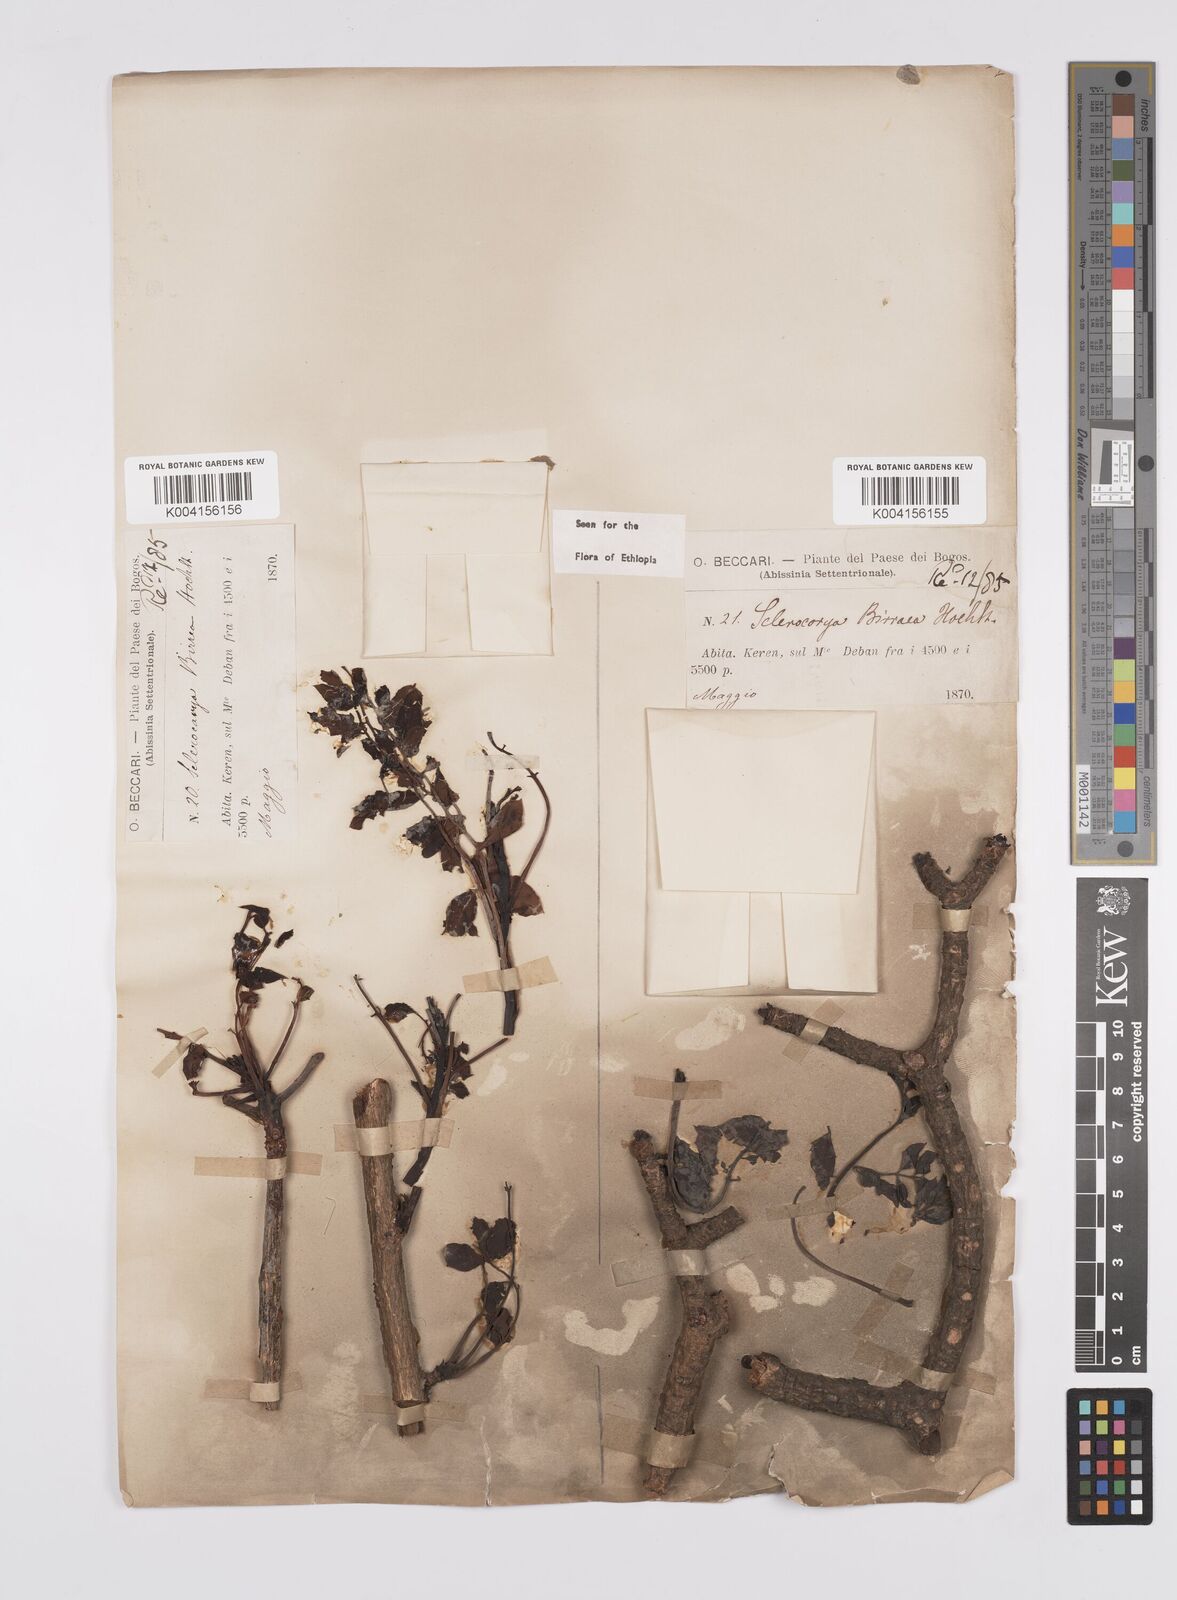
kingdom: Plantae
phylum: Tracheophyta
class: Magnoliopsida
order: Sapindales
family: Anacardiaceae
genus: Sclerocarya
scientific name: Sclerocarya birrea
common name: Marula
